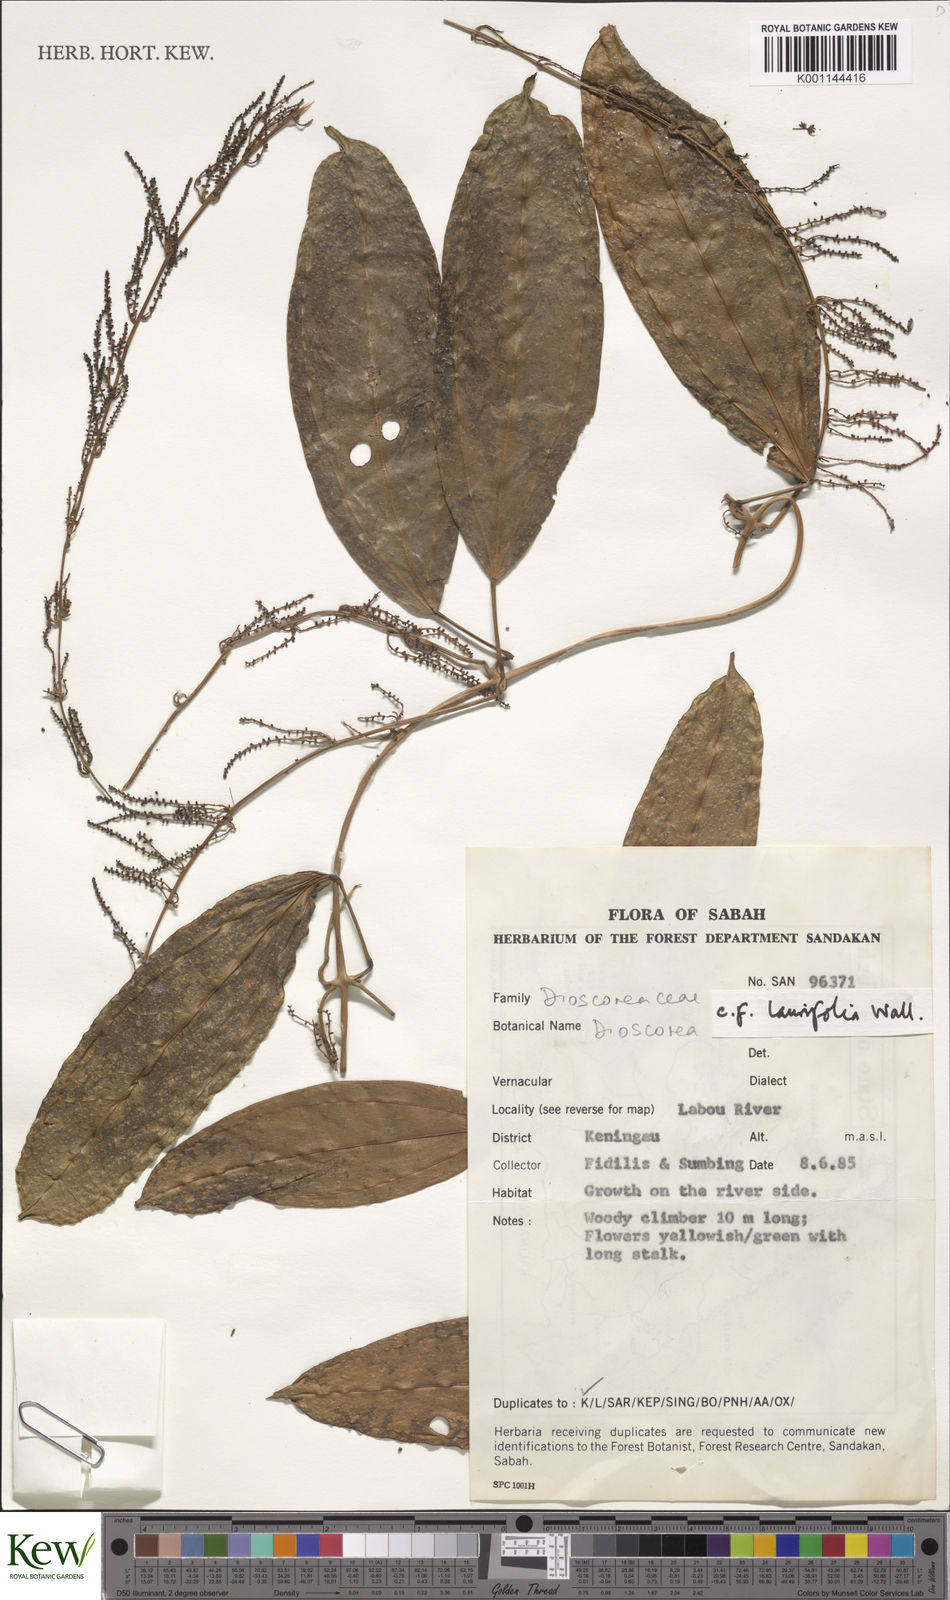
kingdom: Plantae
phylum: Tracheophyta
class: Liliopsida
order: Dioscoreales
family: Dioscoreaceae
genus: Dioscorea
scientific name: Dioscorea laurifolia
